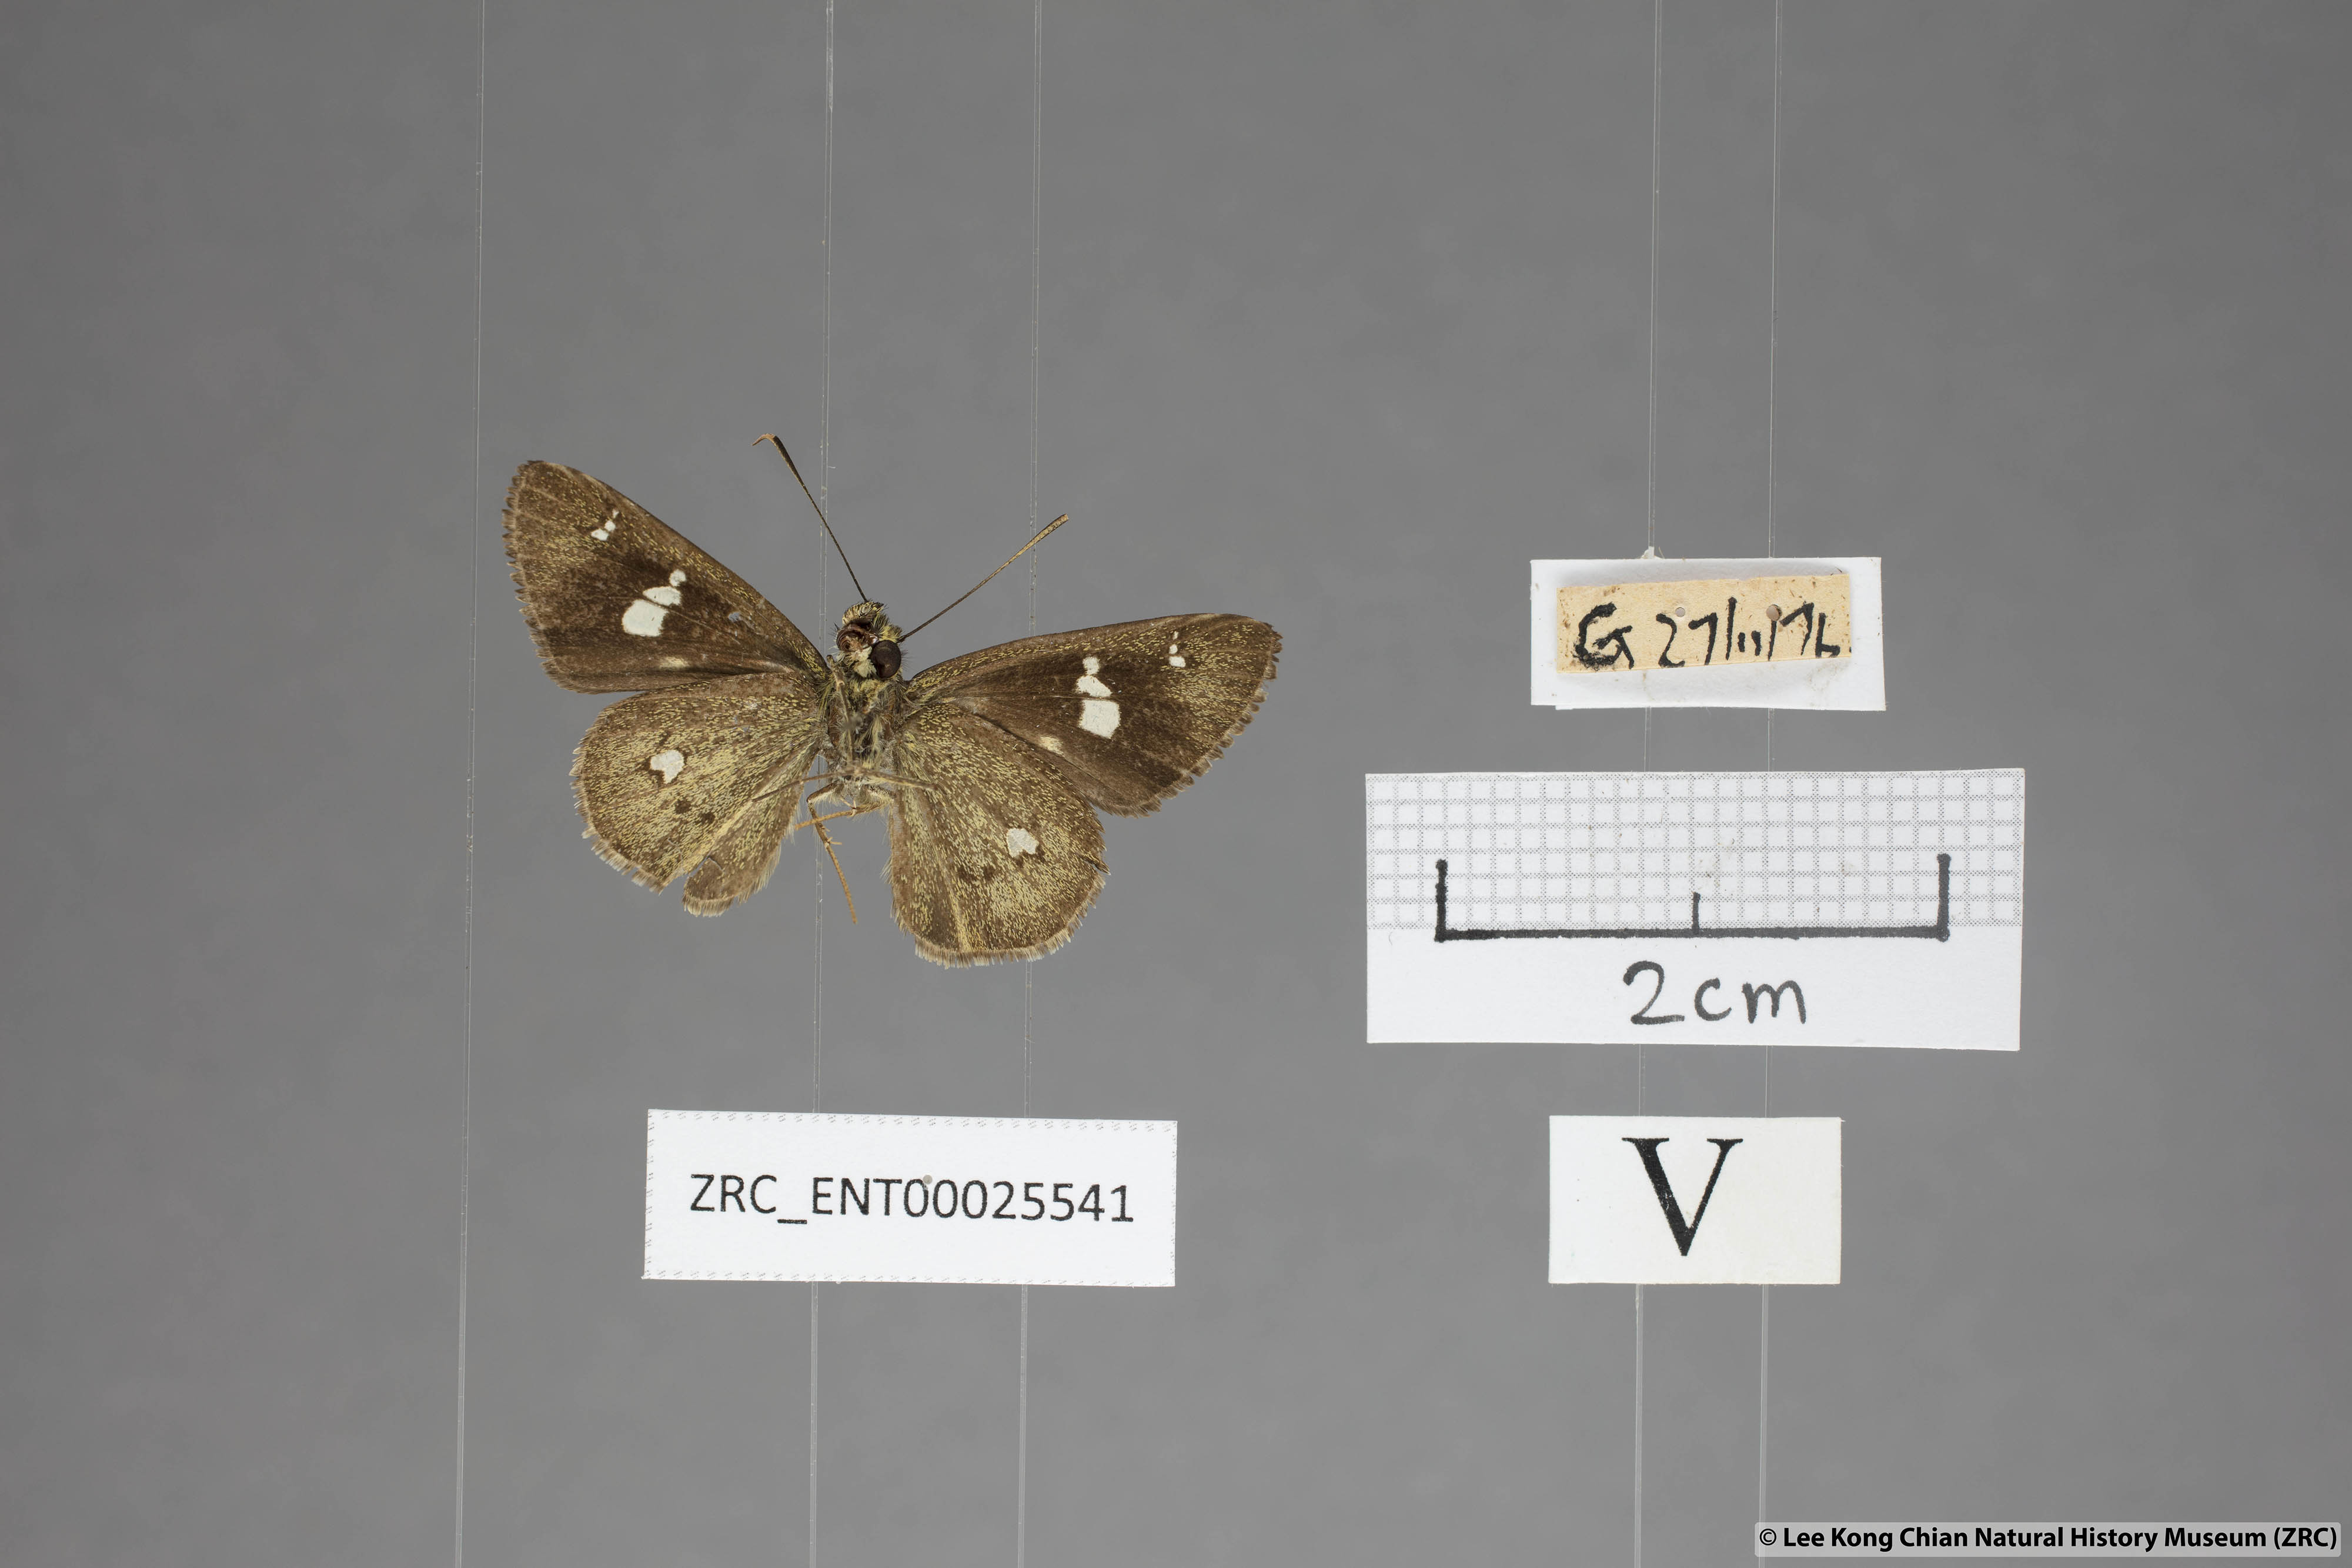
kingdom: Animalia
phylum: Arthropoda
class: Insecta
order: Lepidoptera
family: Hesperiidae
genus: Scobura
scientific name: Scobura phiditia
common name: Malay forest bob
